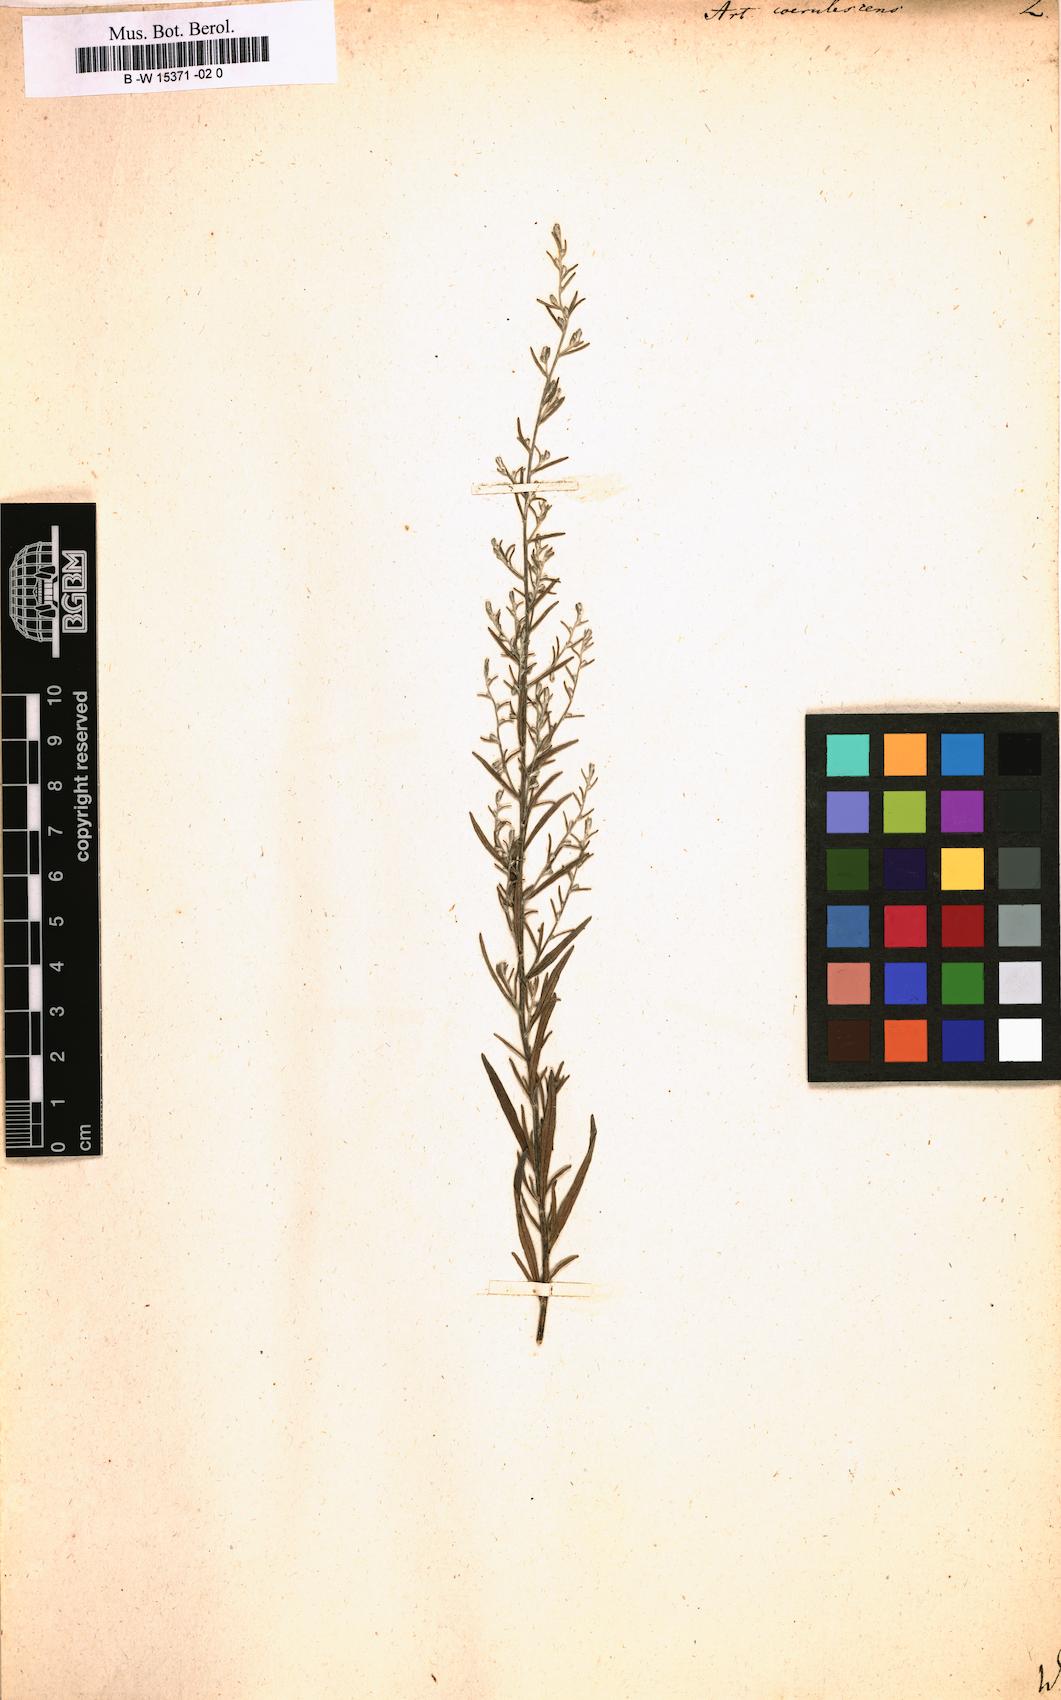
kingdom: Plantae
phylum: Tracheophyta
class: Magnoliopsida
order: Asterales
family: Asteraceae
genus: Artemisia
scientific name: Artemisia caerulescens
